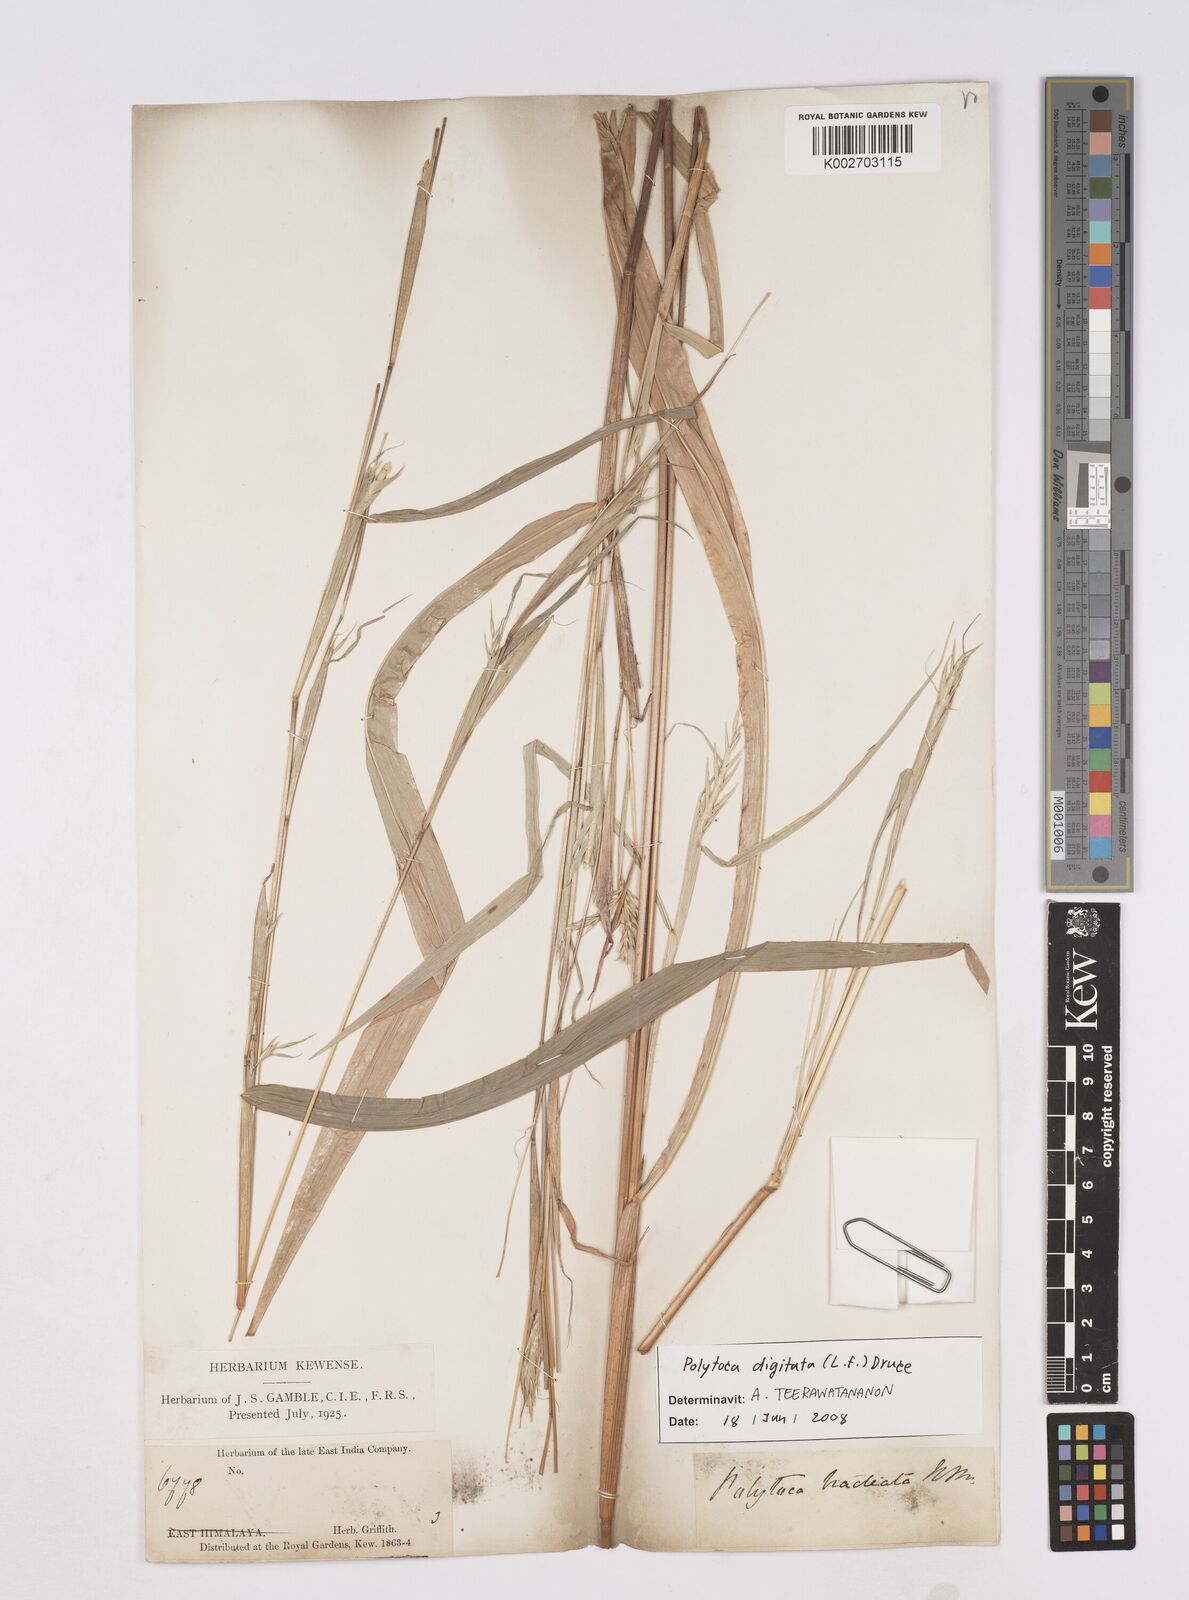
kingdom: Plantae
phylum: Tracheophyta
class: Liliopsida
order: Poales
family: Poaceae
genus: Polytoca
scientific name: Polytoca digitata
